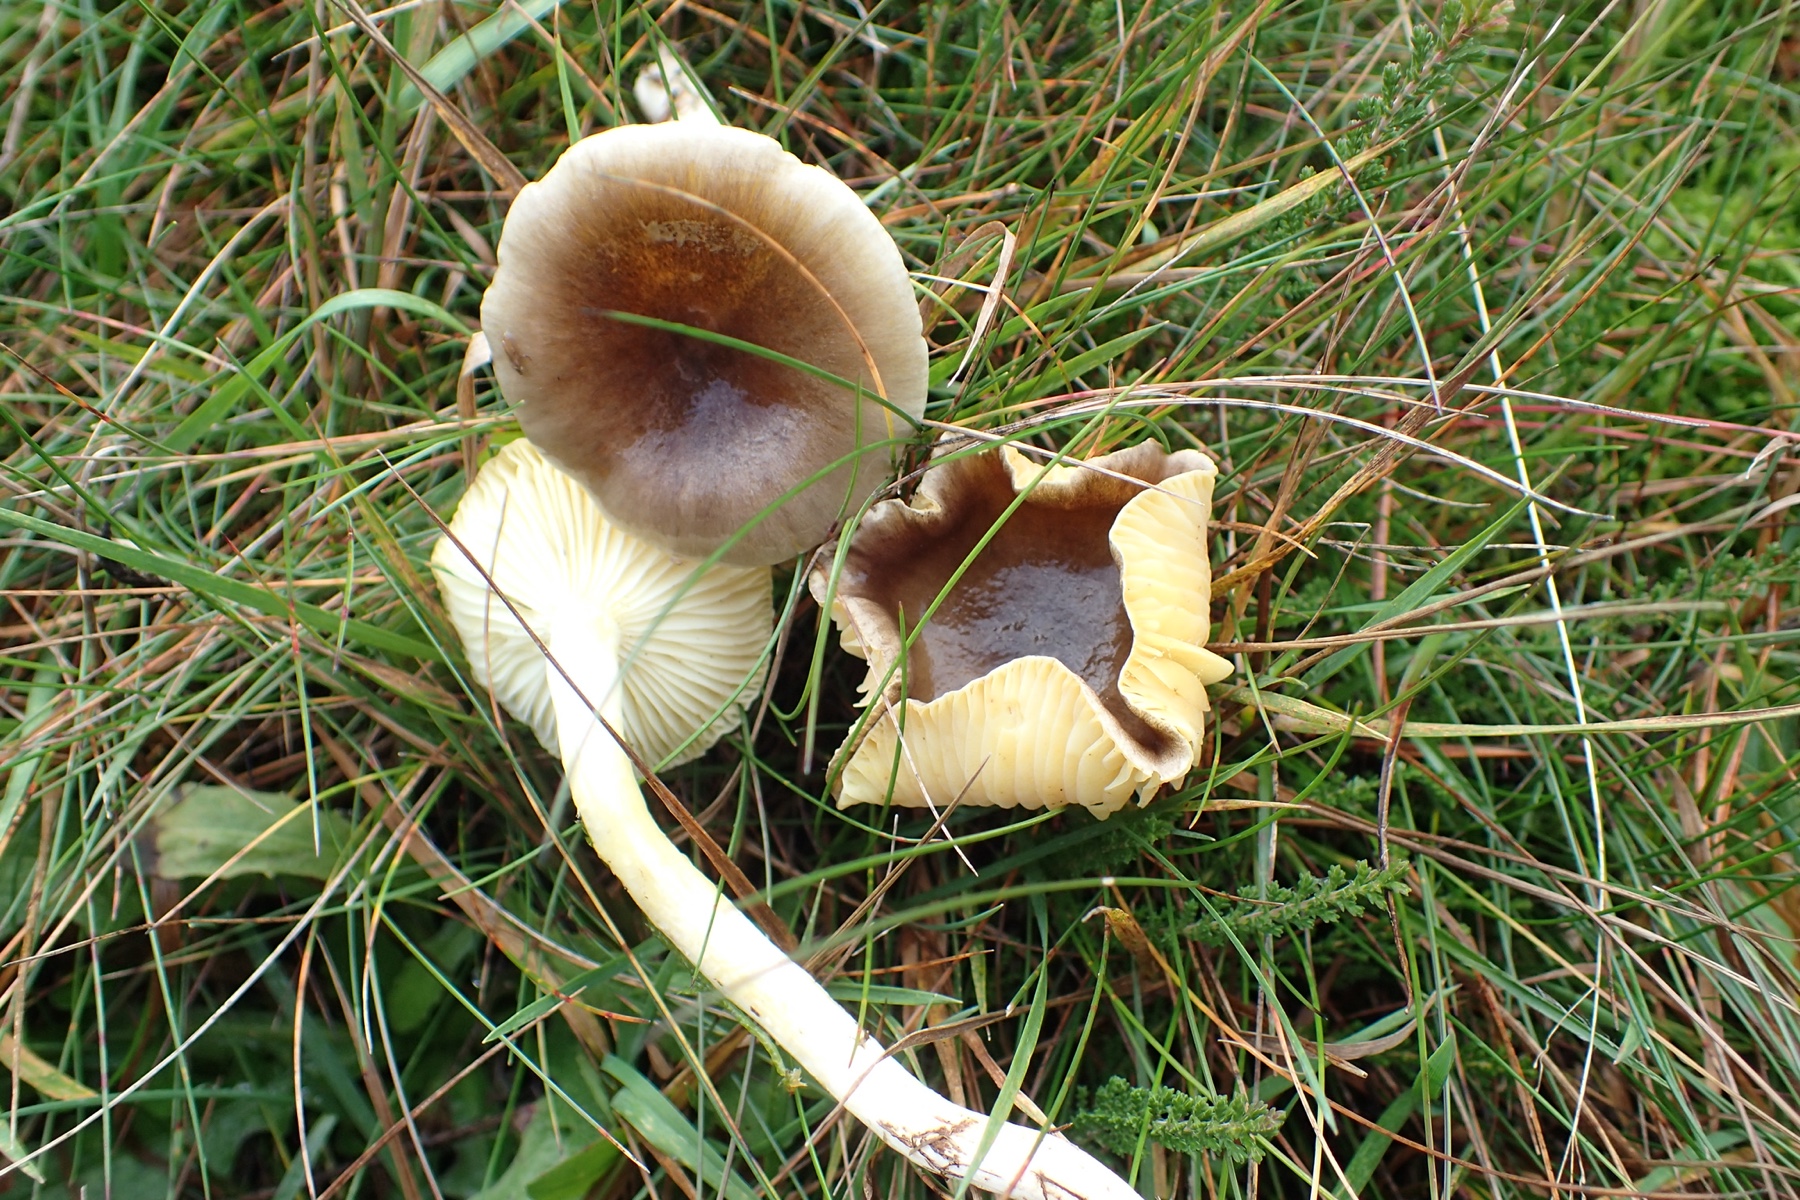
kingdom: Fungi
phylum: Basidiomycota
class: Agaricomycetes
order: Agaricales
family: Hygrophoraceae
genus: Hygrophorus
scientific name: Hygrophorus hypothejus
